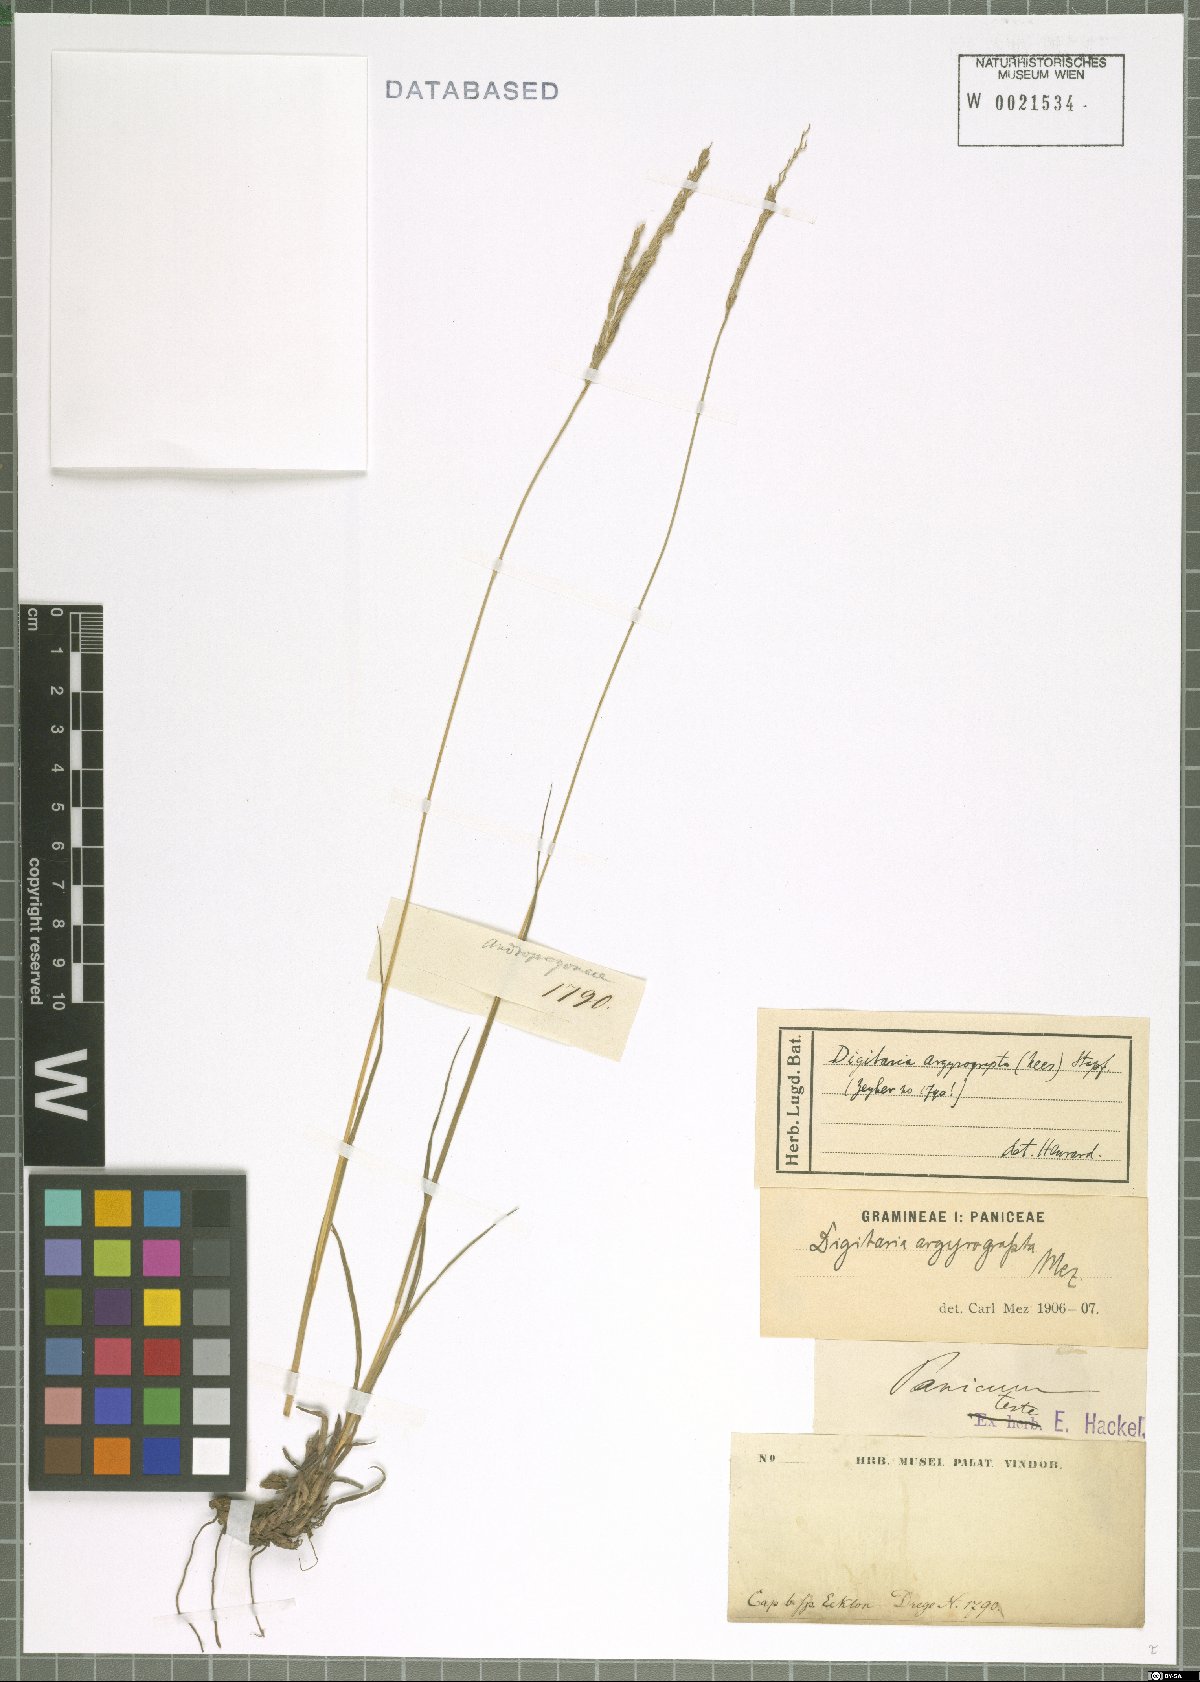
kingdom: Plantae
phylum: Tracheophyta
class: Liliopsida
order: Poales
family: Poaceae
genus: Digitaria
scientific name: Digitaria argyrograpta
